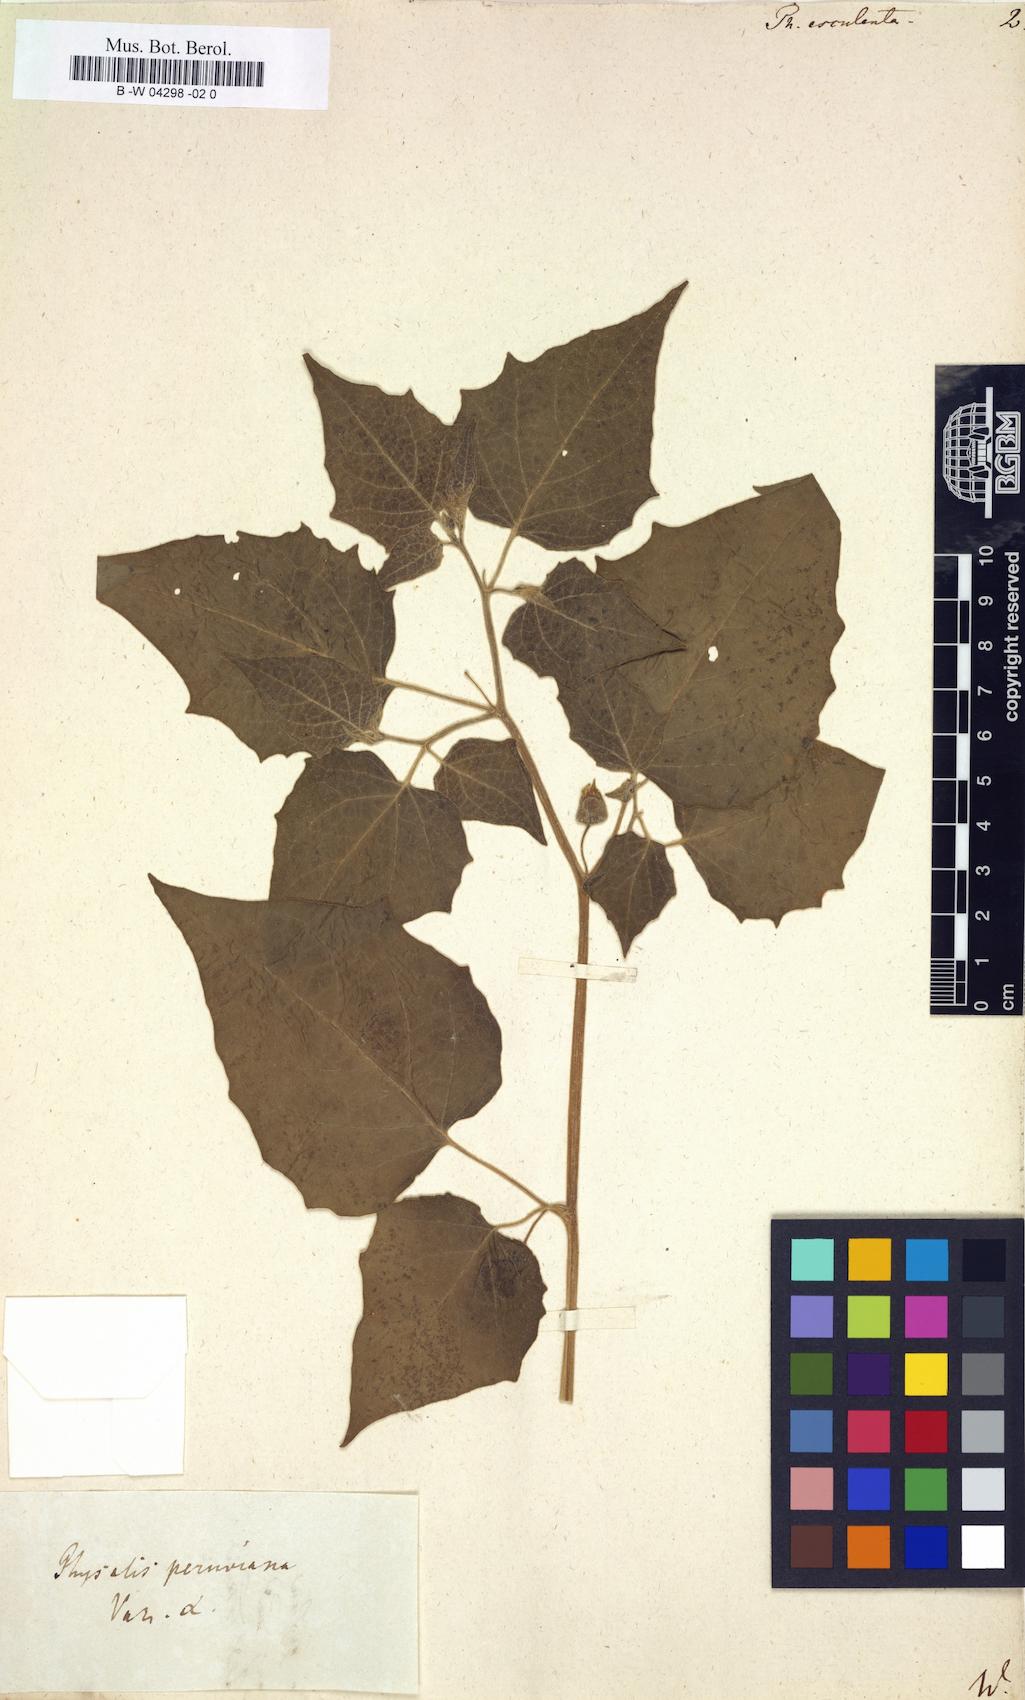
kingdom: Plantae
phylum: Tracheophyta
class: Magnoliopsida
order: Solanales
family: Solanaceae
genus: Physalis
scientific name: Physalis peruviana
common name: Cape-gooseberry
